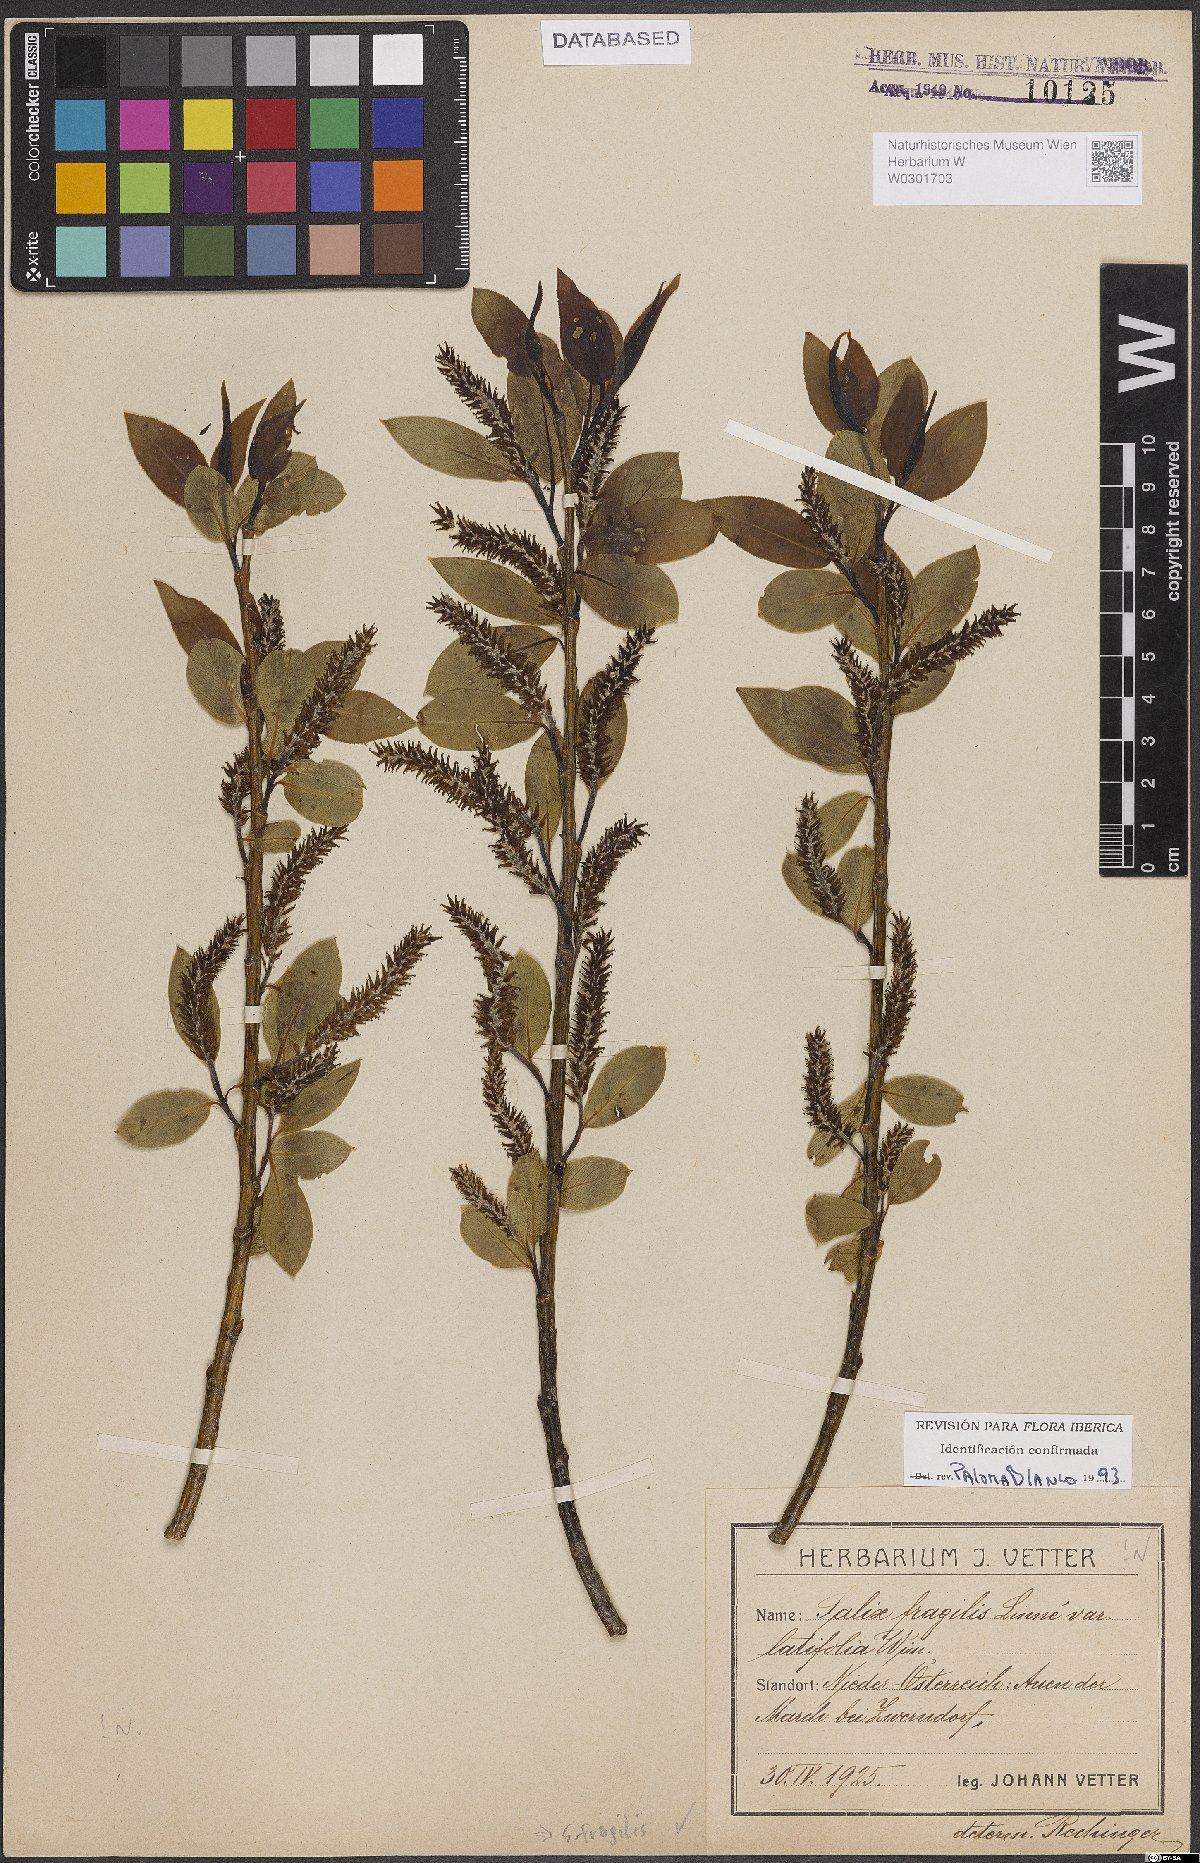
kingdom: Plantae
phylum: Tracheophyta
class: Magnoliopsida
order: Malpighiales
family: Salicaceae
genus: Salix
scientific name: Salix fragilis
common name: Crack willow
